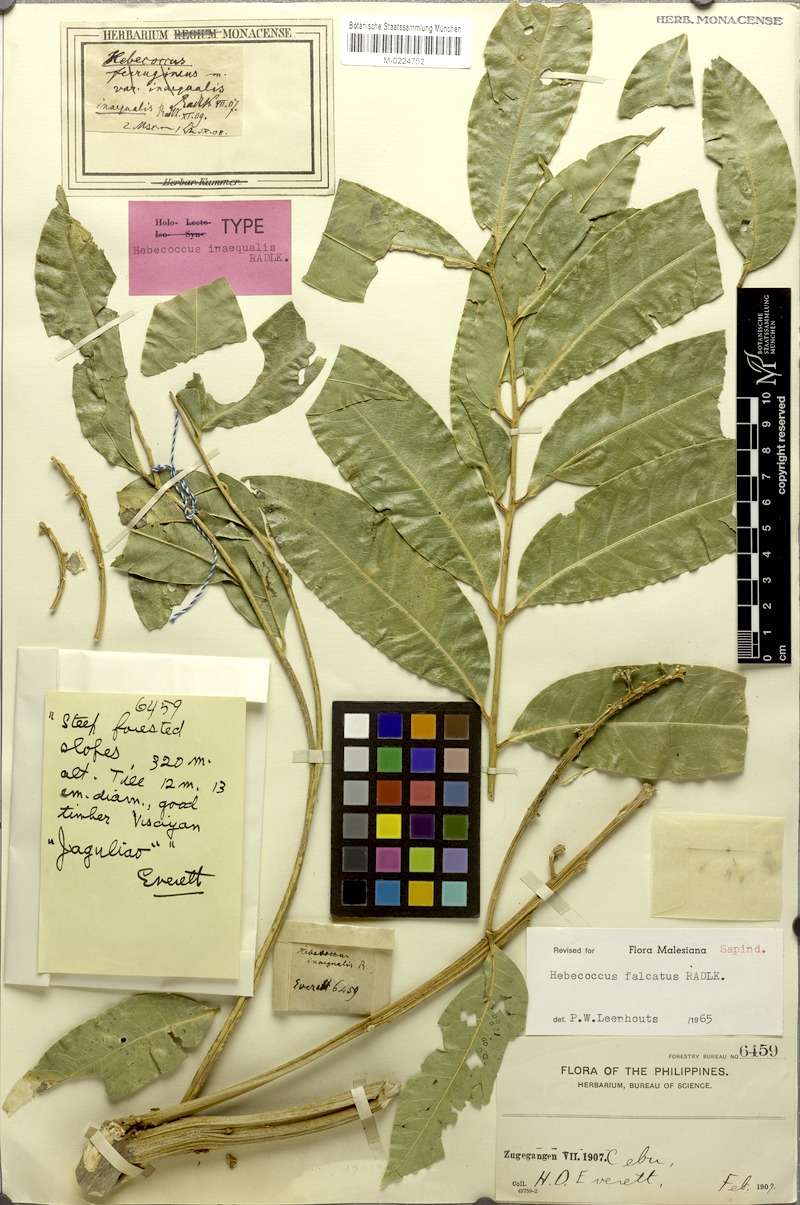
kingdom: Plantae
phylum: Tracheophyta
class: Magnoliopsida
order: Sapindales
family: Sapindaceae
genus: Lepisanthes
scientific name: Lepisanthes falcata
